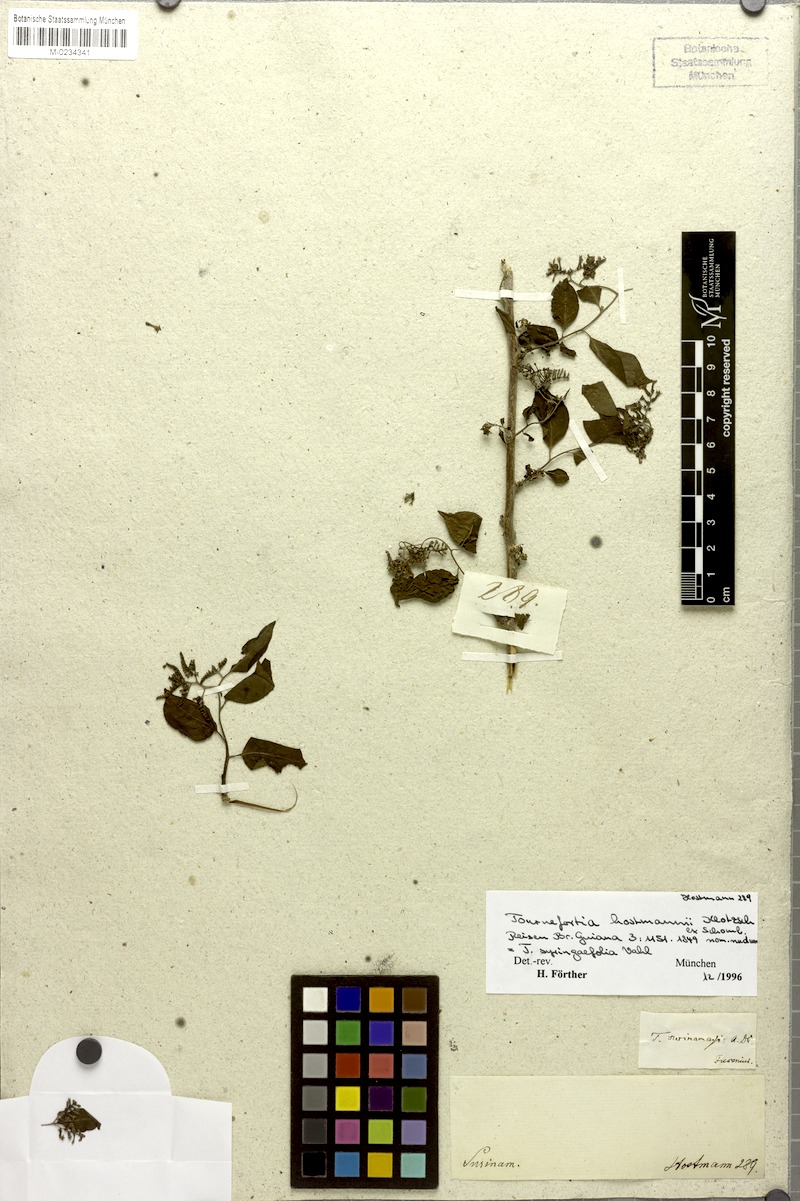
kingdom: Plantae
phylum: Tracheophyta
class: Magnoliopsida
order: Boraginales
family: Heliotropiaceae
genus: Myriopus
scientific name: Myriopus maculatus
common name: Laurel-leaf soldierbush
